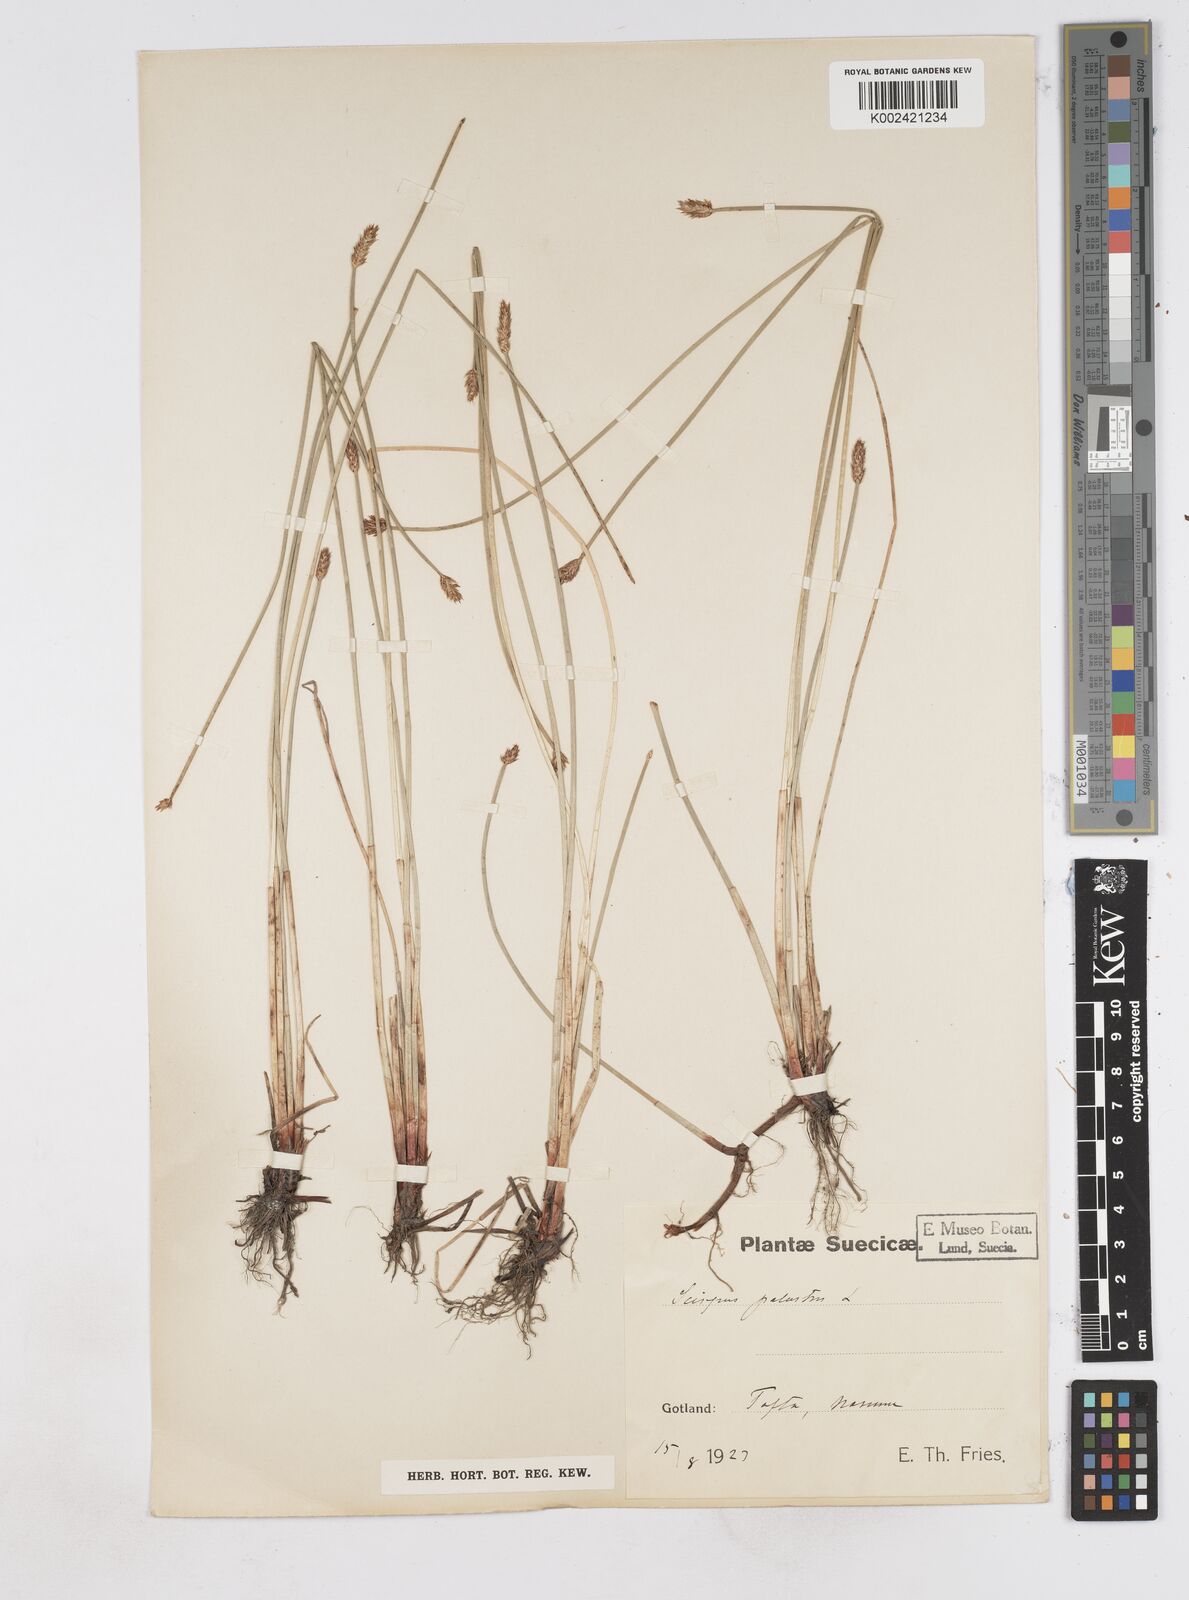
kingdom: Plantae
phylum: Tracheophyta
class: Liliopsida
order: Poales
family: Cyperaceae
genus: Eleocharis
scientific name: Eleocharis palustris
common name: Common spike-rush
